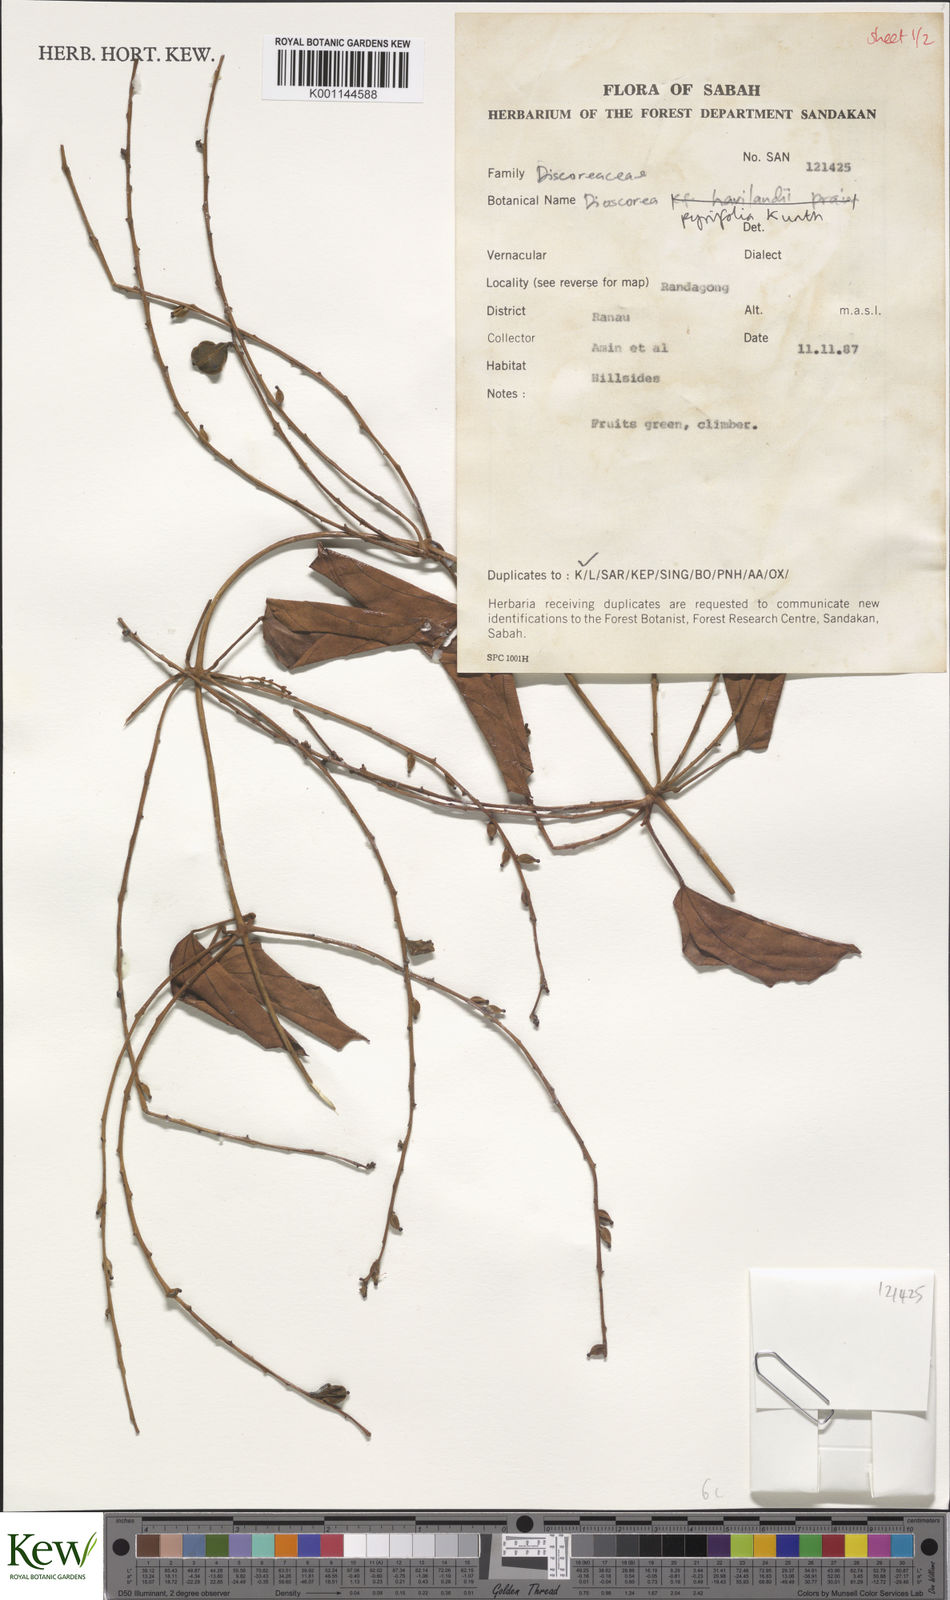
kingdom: Plantae
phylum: Tracheophyta
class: Liliopsida
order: Dioscoreales
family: Dioscoreaceae
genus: Dioscorea
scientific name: Dioscorea pyrifolia
